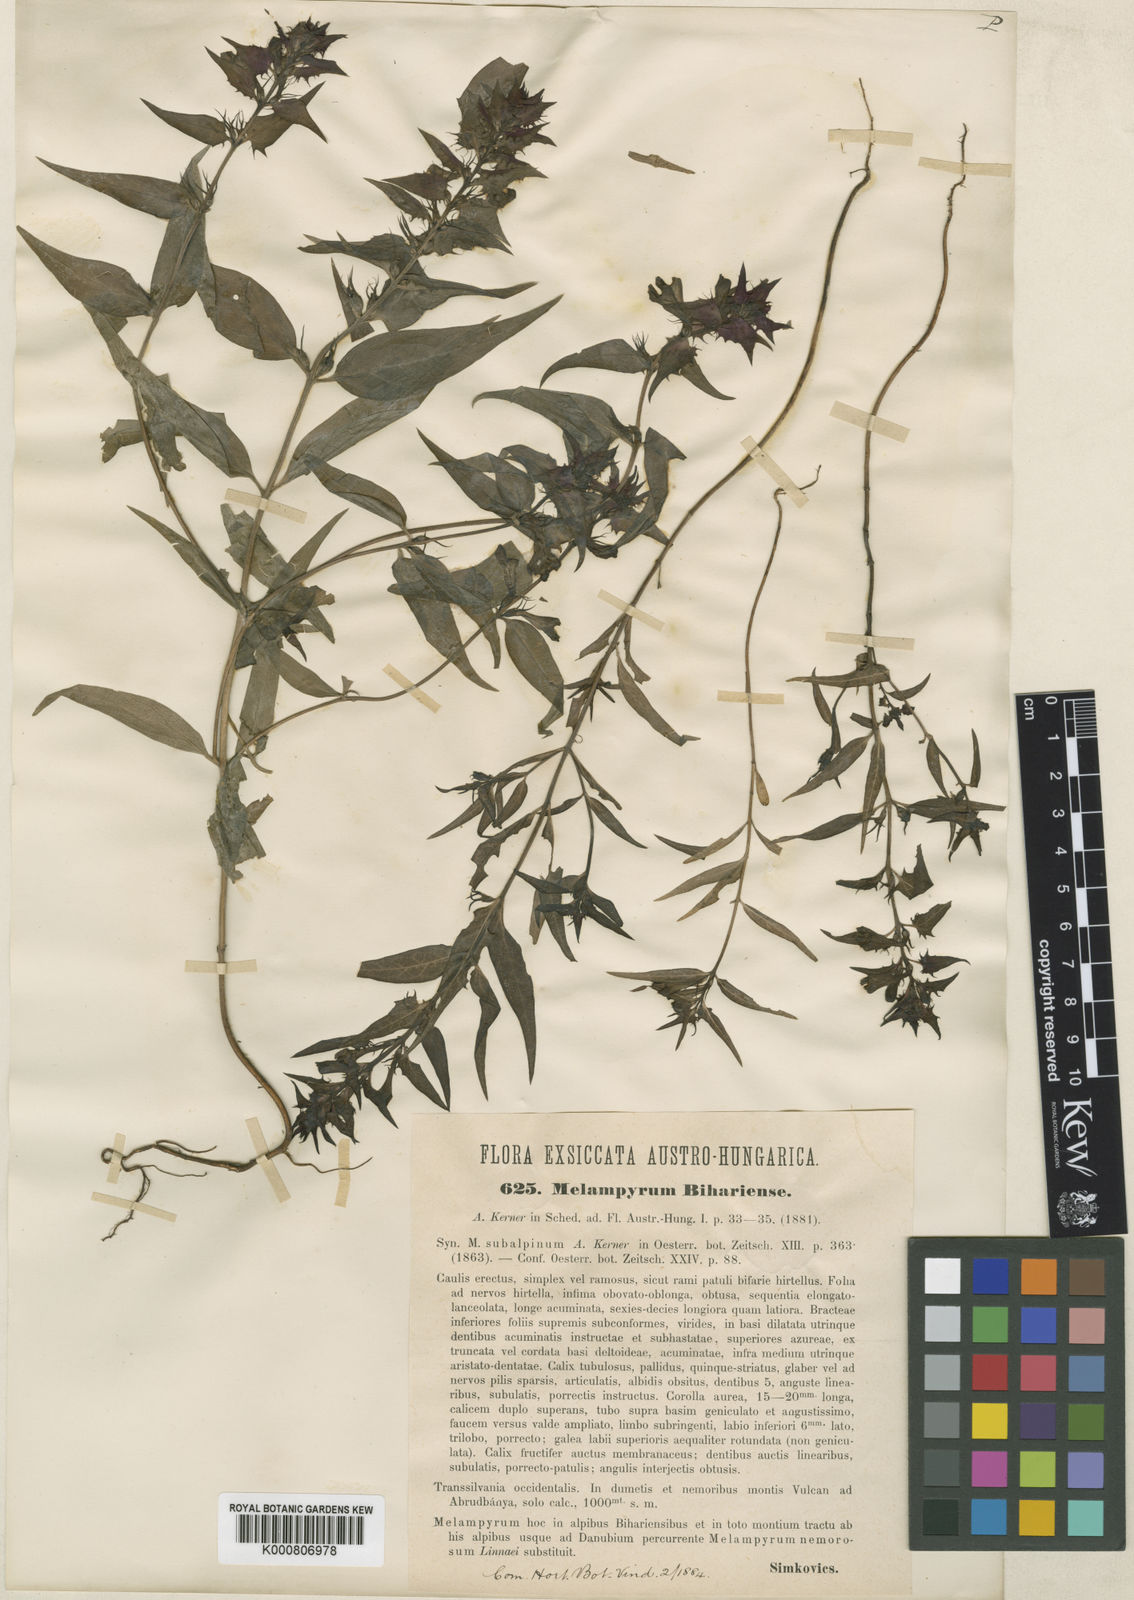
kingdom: Plantae
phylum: Tracheophyta
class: Magnoliopsida
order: Lamiales
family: Orobanchaceae
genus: Melampyrum
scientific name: Melampyrum bihariense
